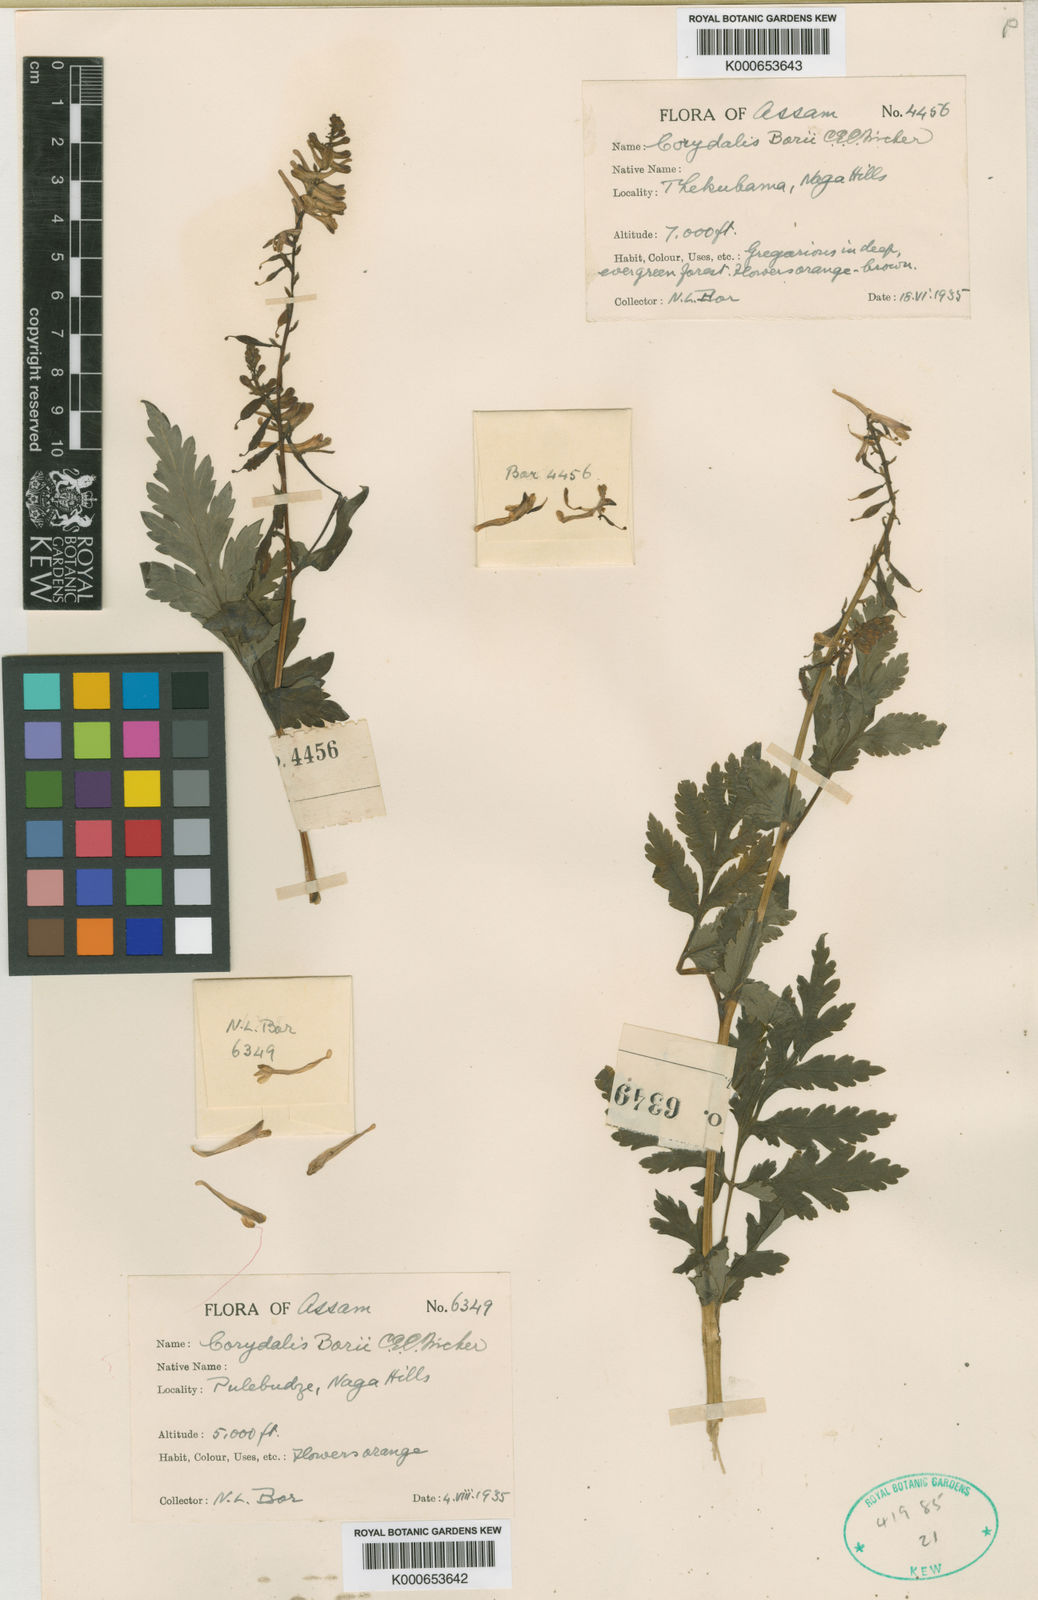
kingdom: Plantae
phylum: Tracheophyta
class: Magnoliopsida
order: Ranunculales
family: Papaveraceae
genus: Corydalis
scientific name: Corydalis borii
